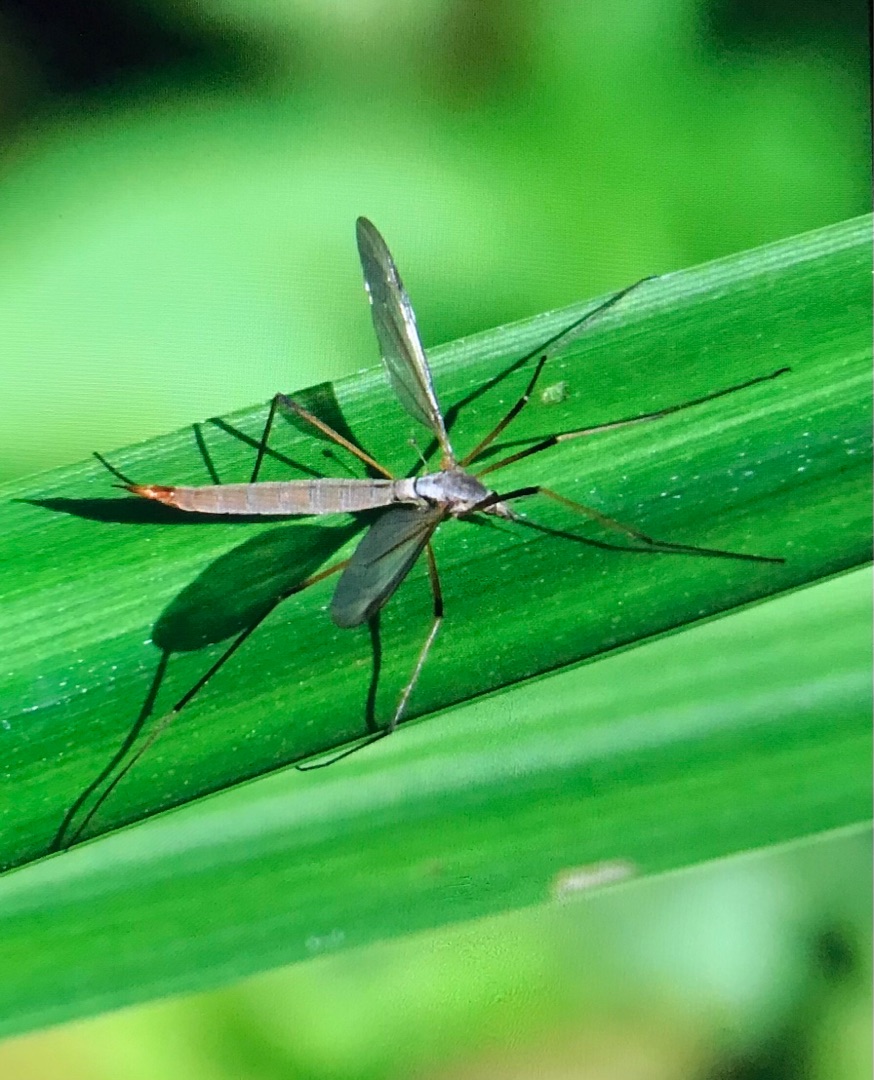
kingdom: Animalia
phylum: Arthropoda
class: Insecta
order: Diptera
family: Tipulidae
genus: Tipula
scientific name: Tipula paludosa
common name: Mosestankelben
